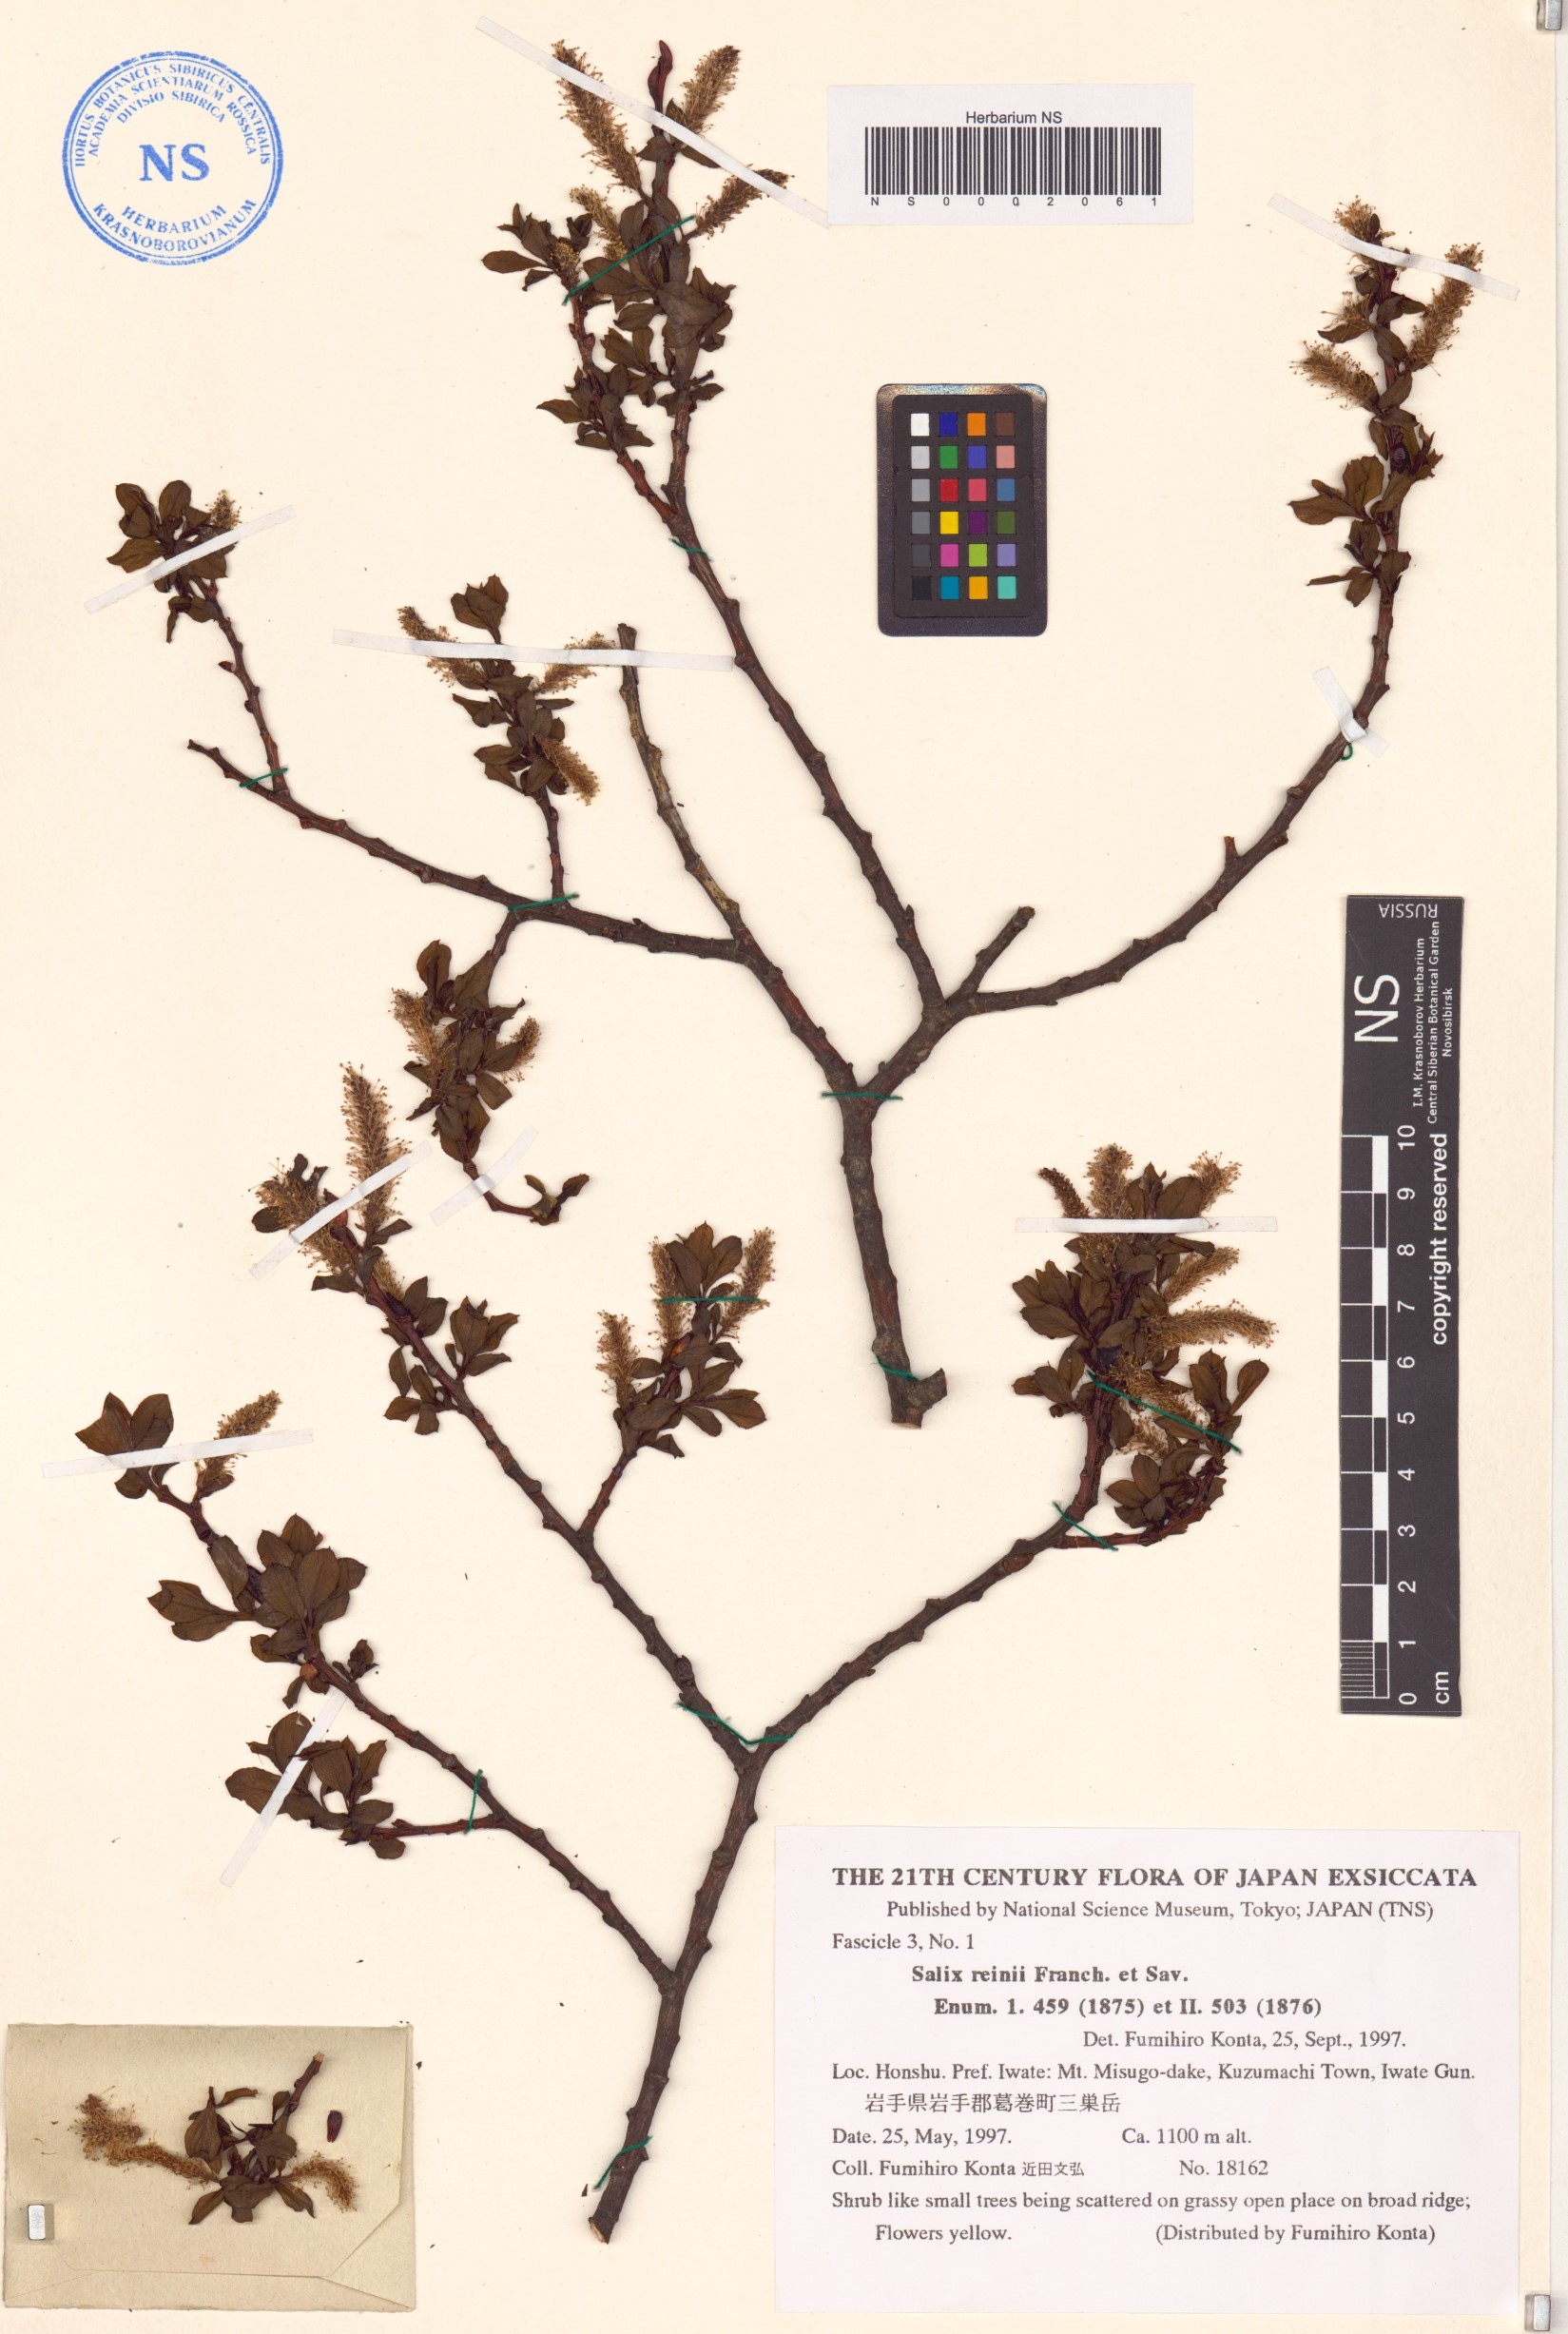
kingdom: Plantae
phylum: Tracheophyta
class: Magnoliopsida
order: Malpighiales
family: Salicaceae
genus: Salix
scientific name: Salix reinii
